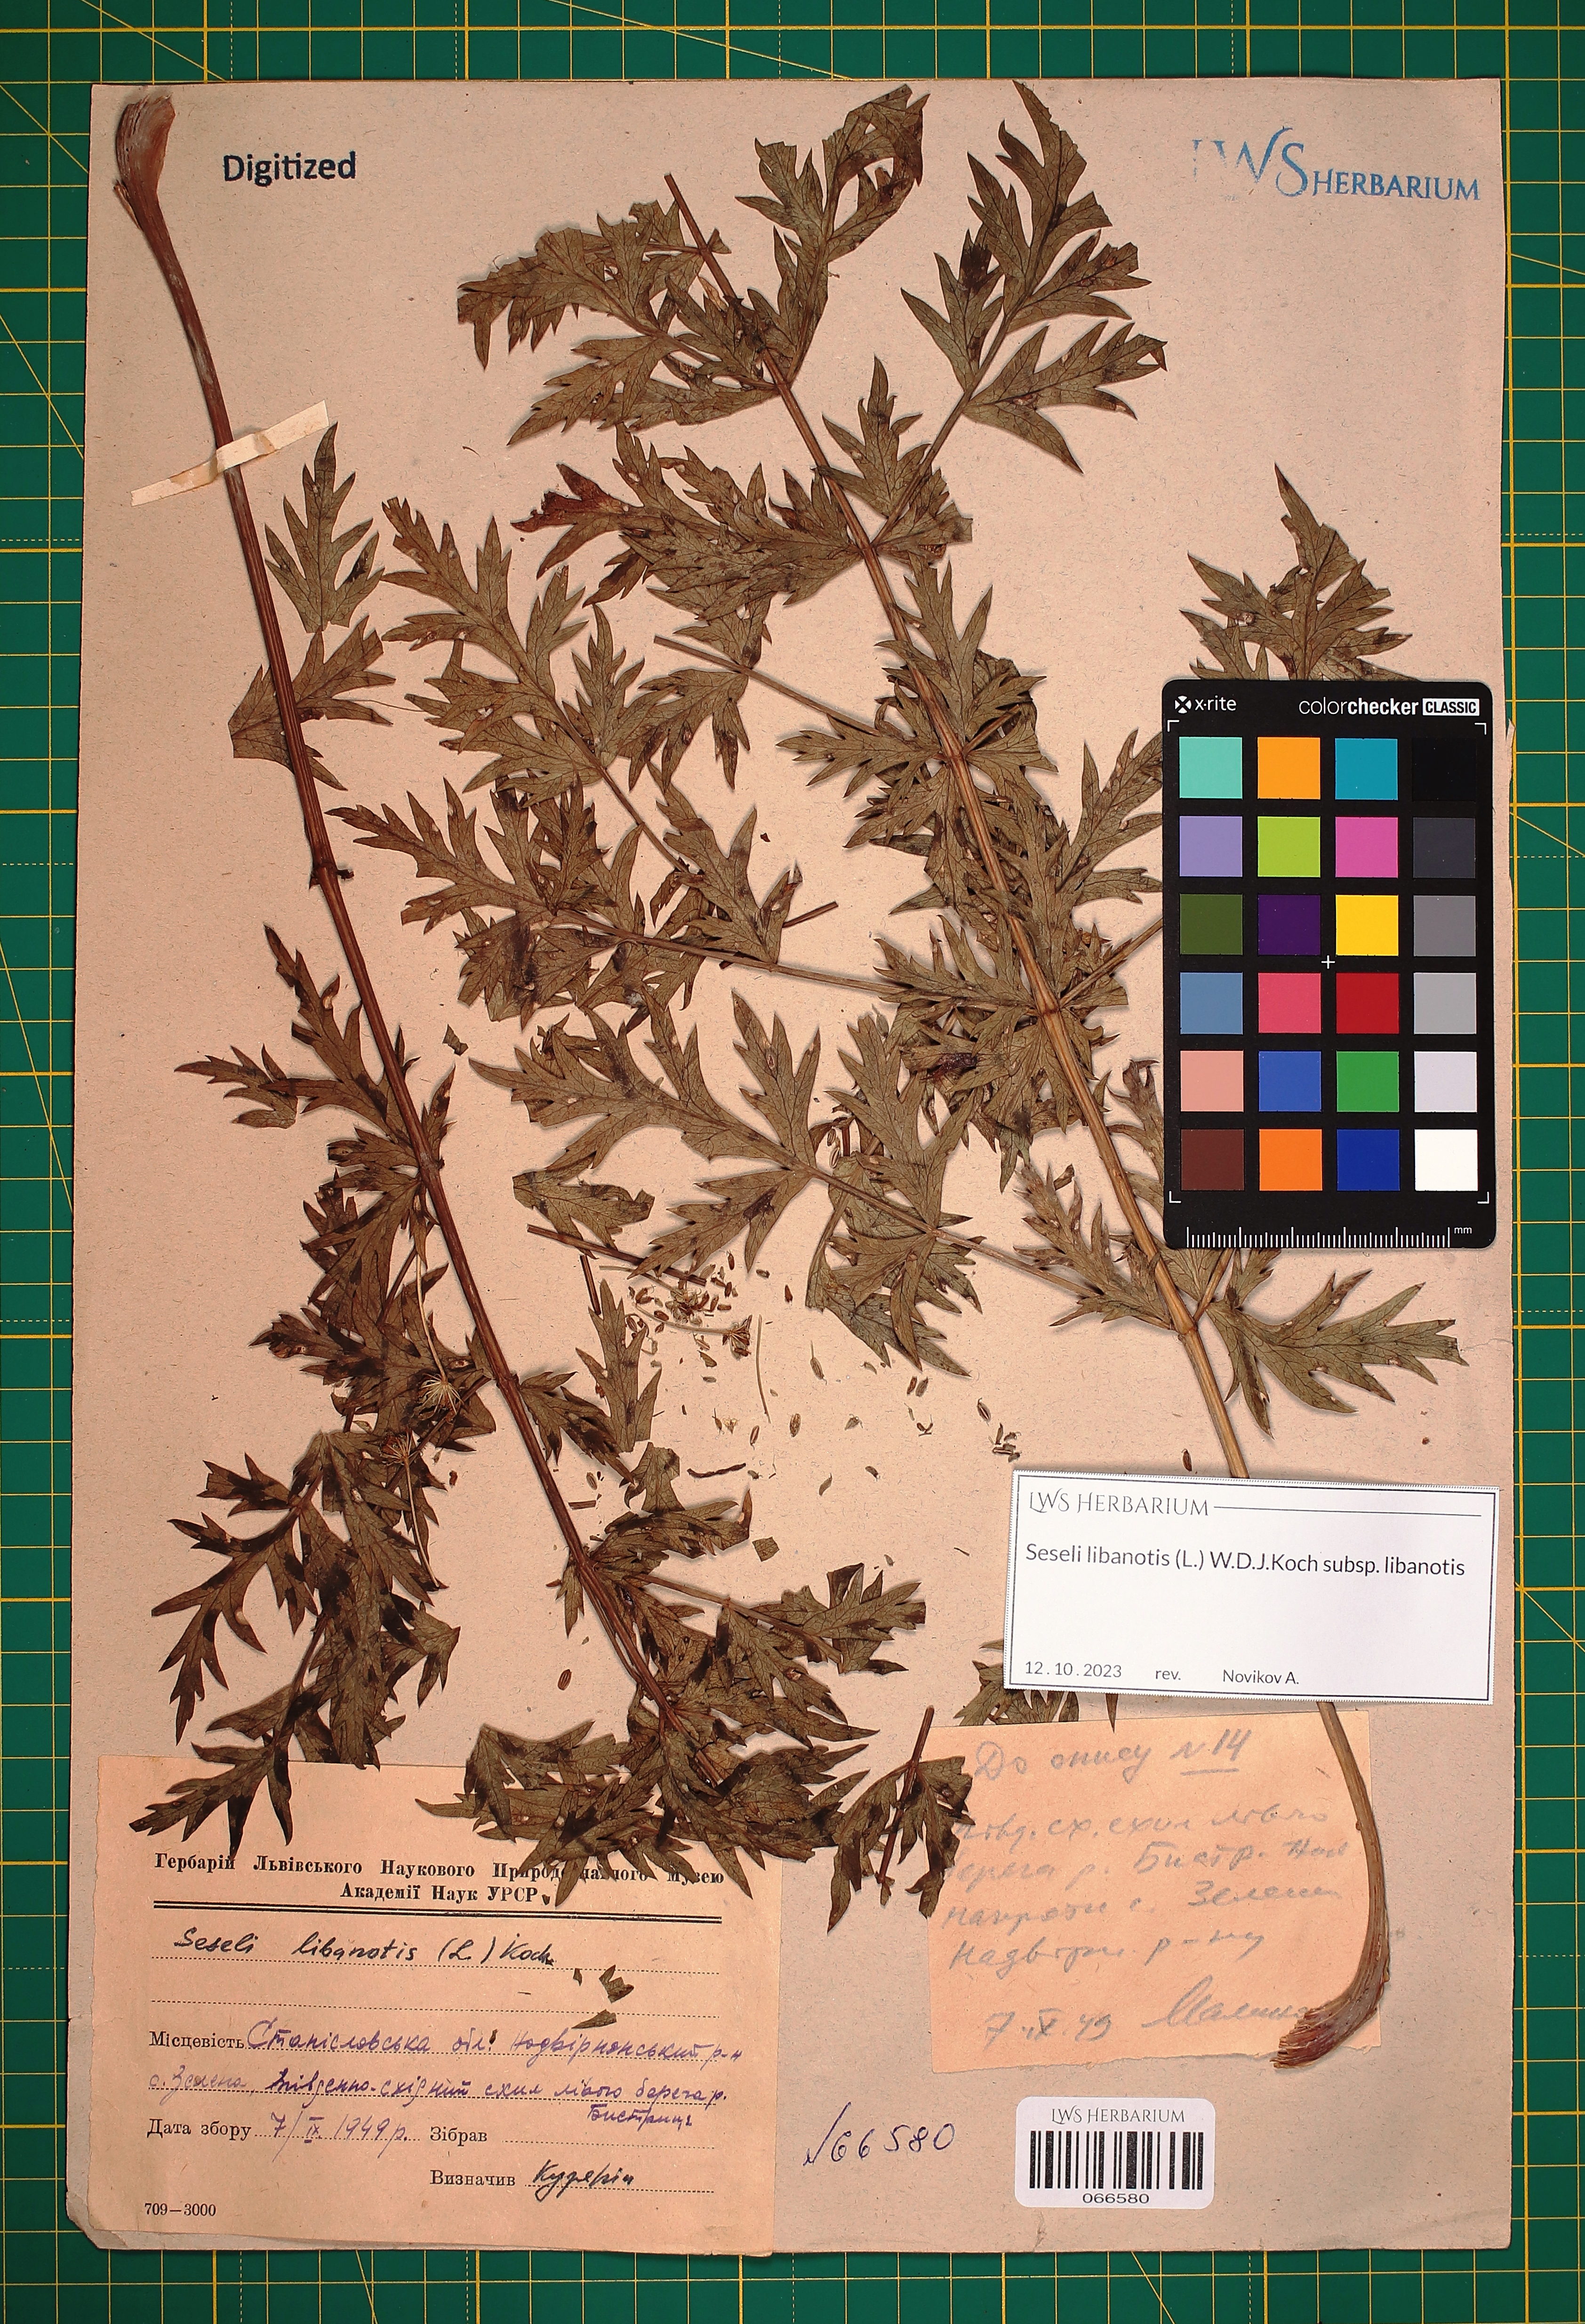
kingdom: Plantae
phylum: Tracheophyta
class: Magnoliopsida
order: Apiales
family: Apiaceae
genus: Seseli
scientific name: Seseli libanotis
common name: Mooncarrot
